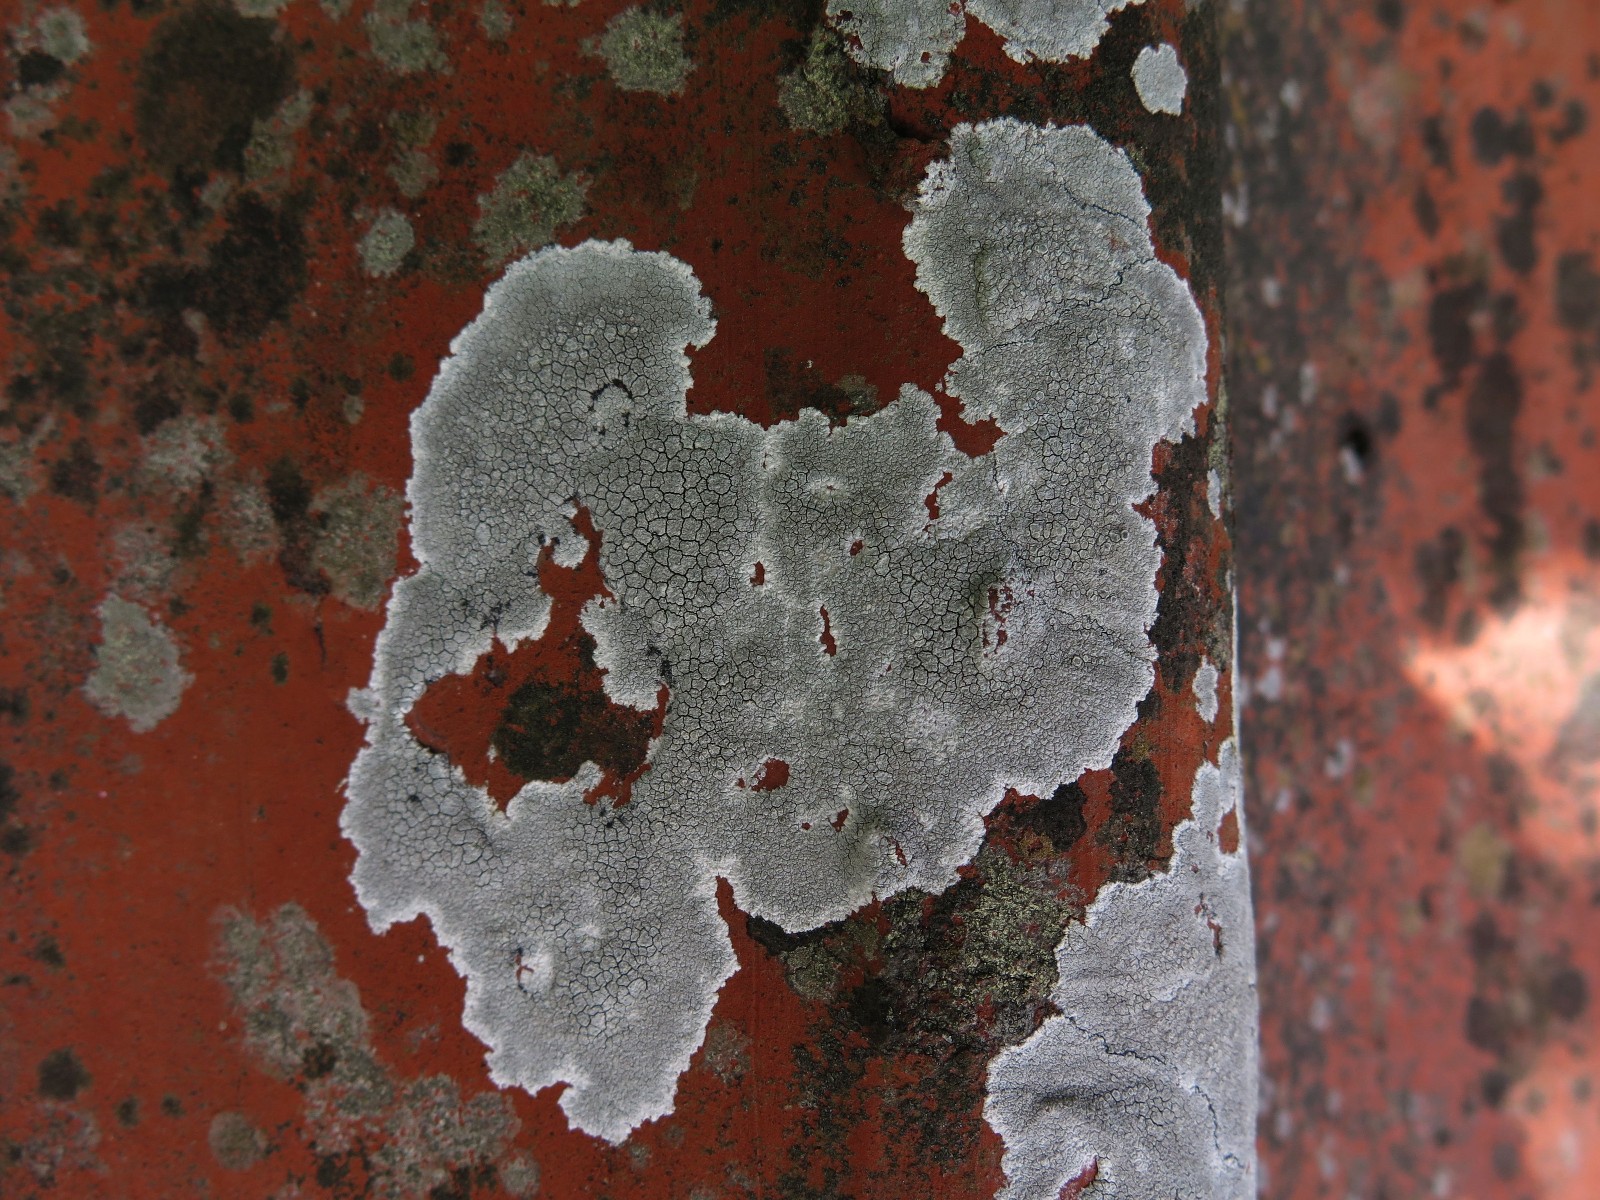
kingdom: Fungi
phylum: Ascomycota
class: Lecanoromycetes
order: Lecanorales
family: Lecanoraceae
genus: Glaucomaria
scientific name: Glaucomaria rupicola
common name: stengærde-kantskivelav
